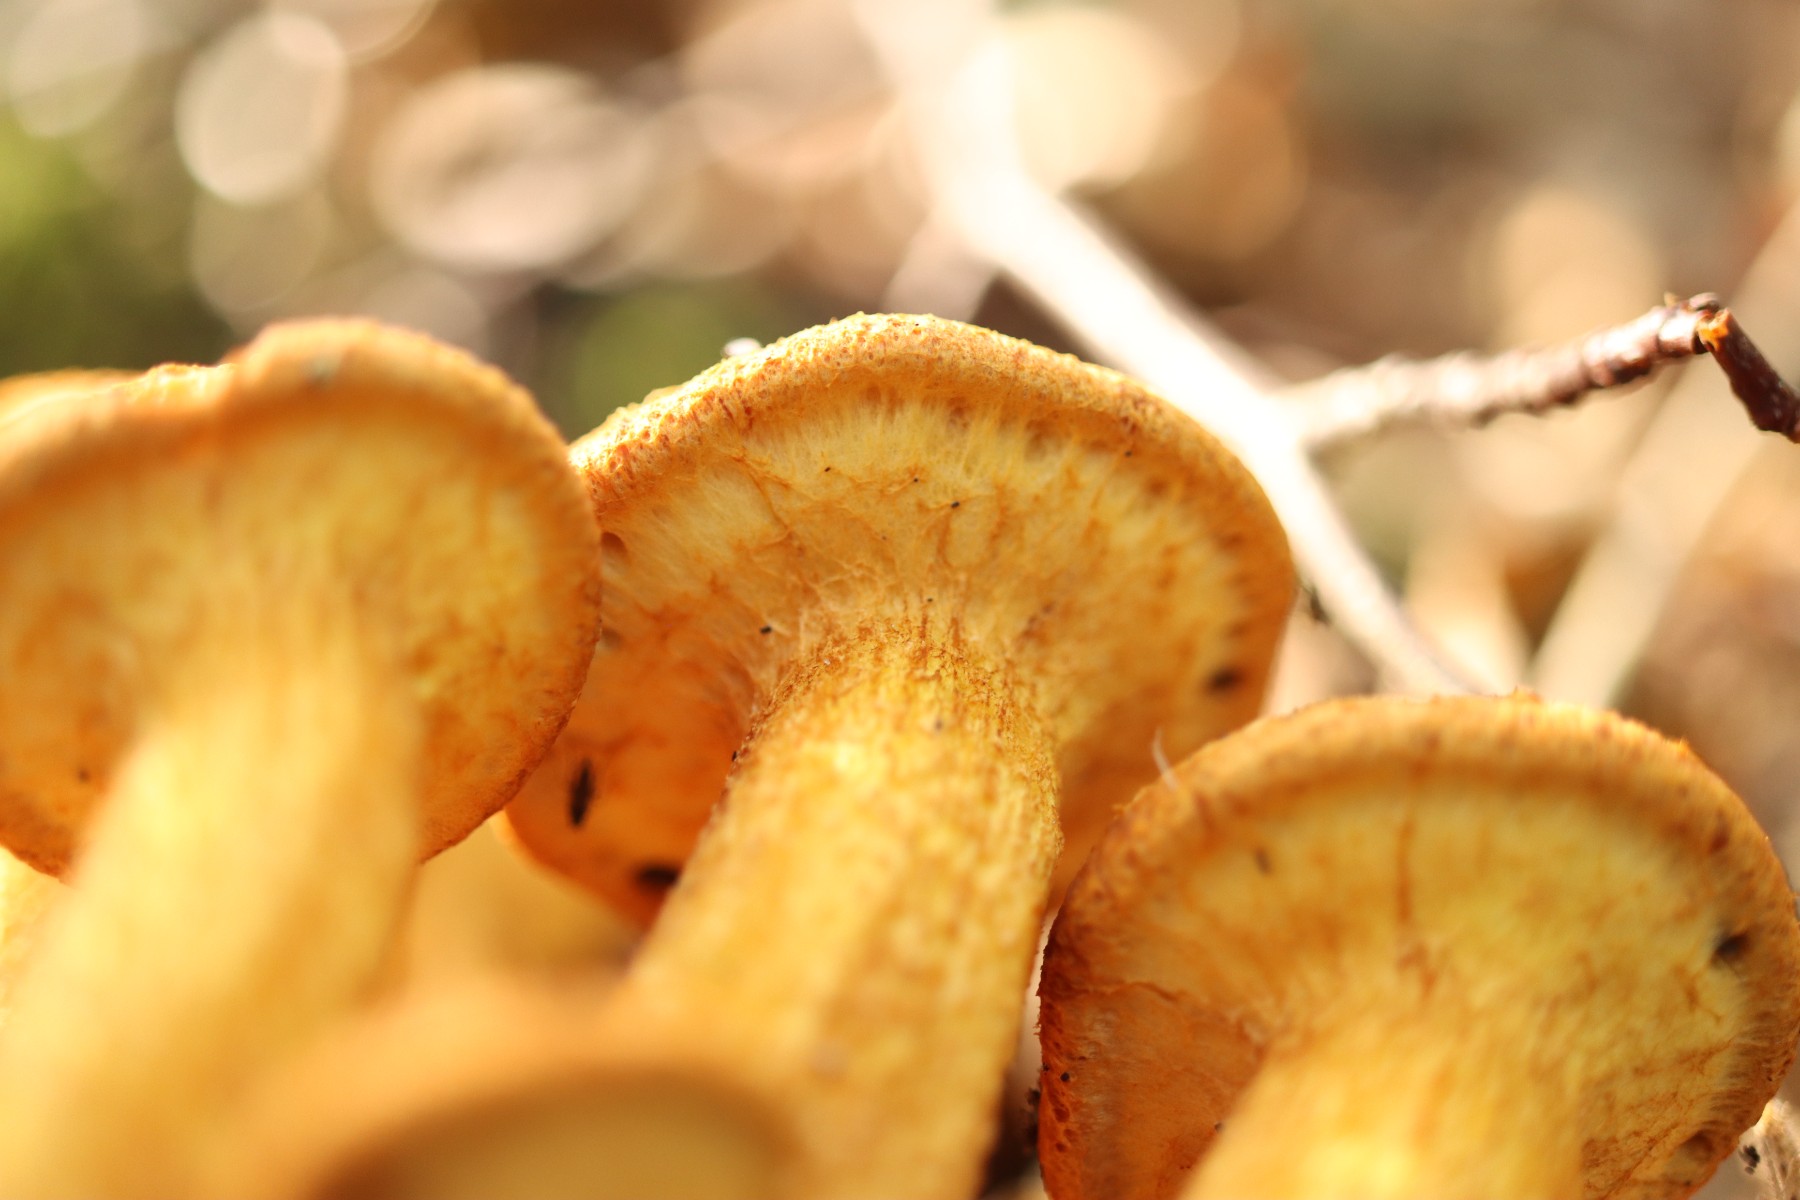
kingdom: Fungi
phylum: Basidiomycota
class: Agaricomycetes
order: Agaricales
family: Hymenogastraceae
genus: Gymnopilus
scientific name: Gymnopilus spectabilis
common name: fibret flammehat
